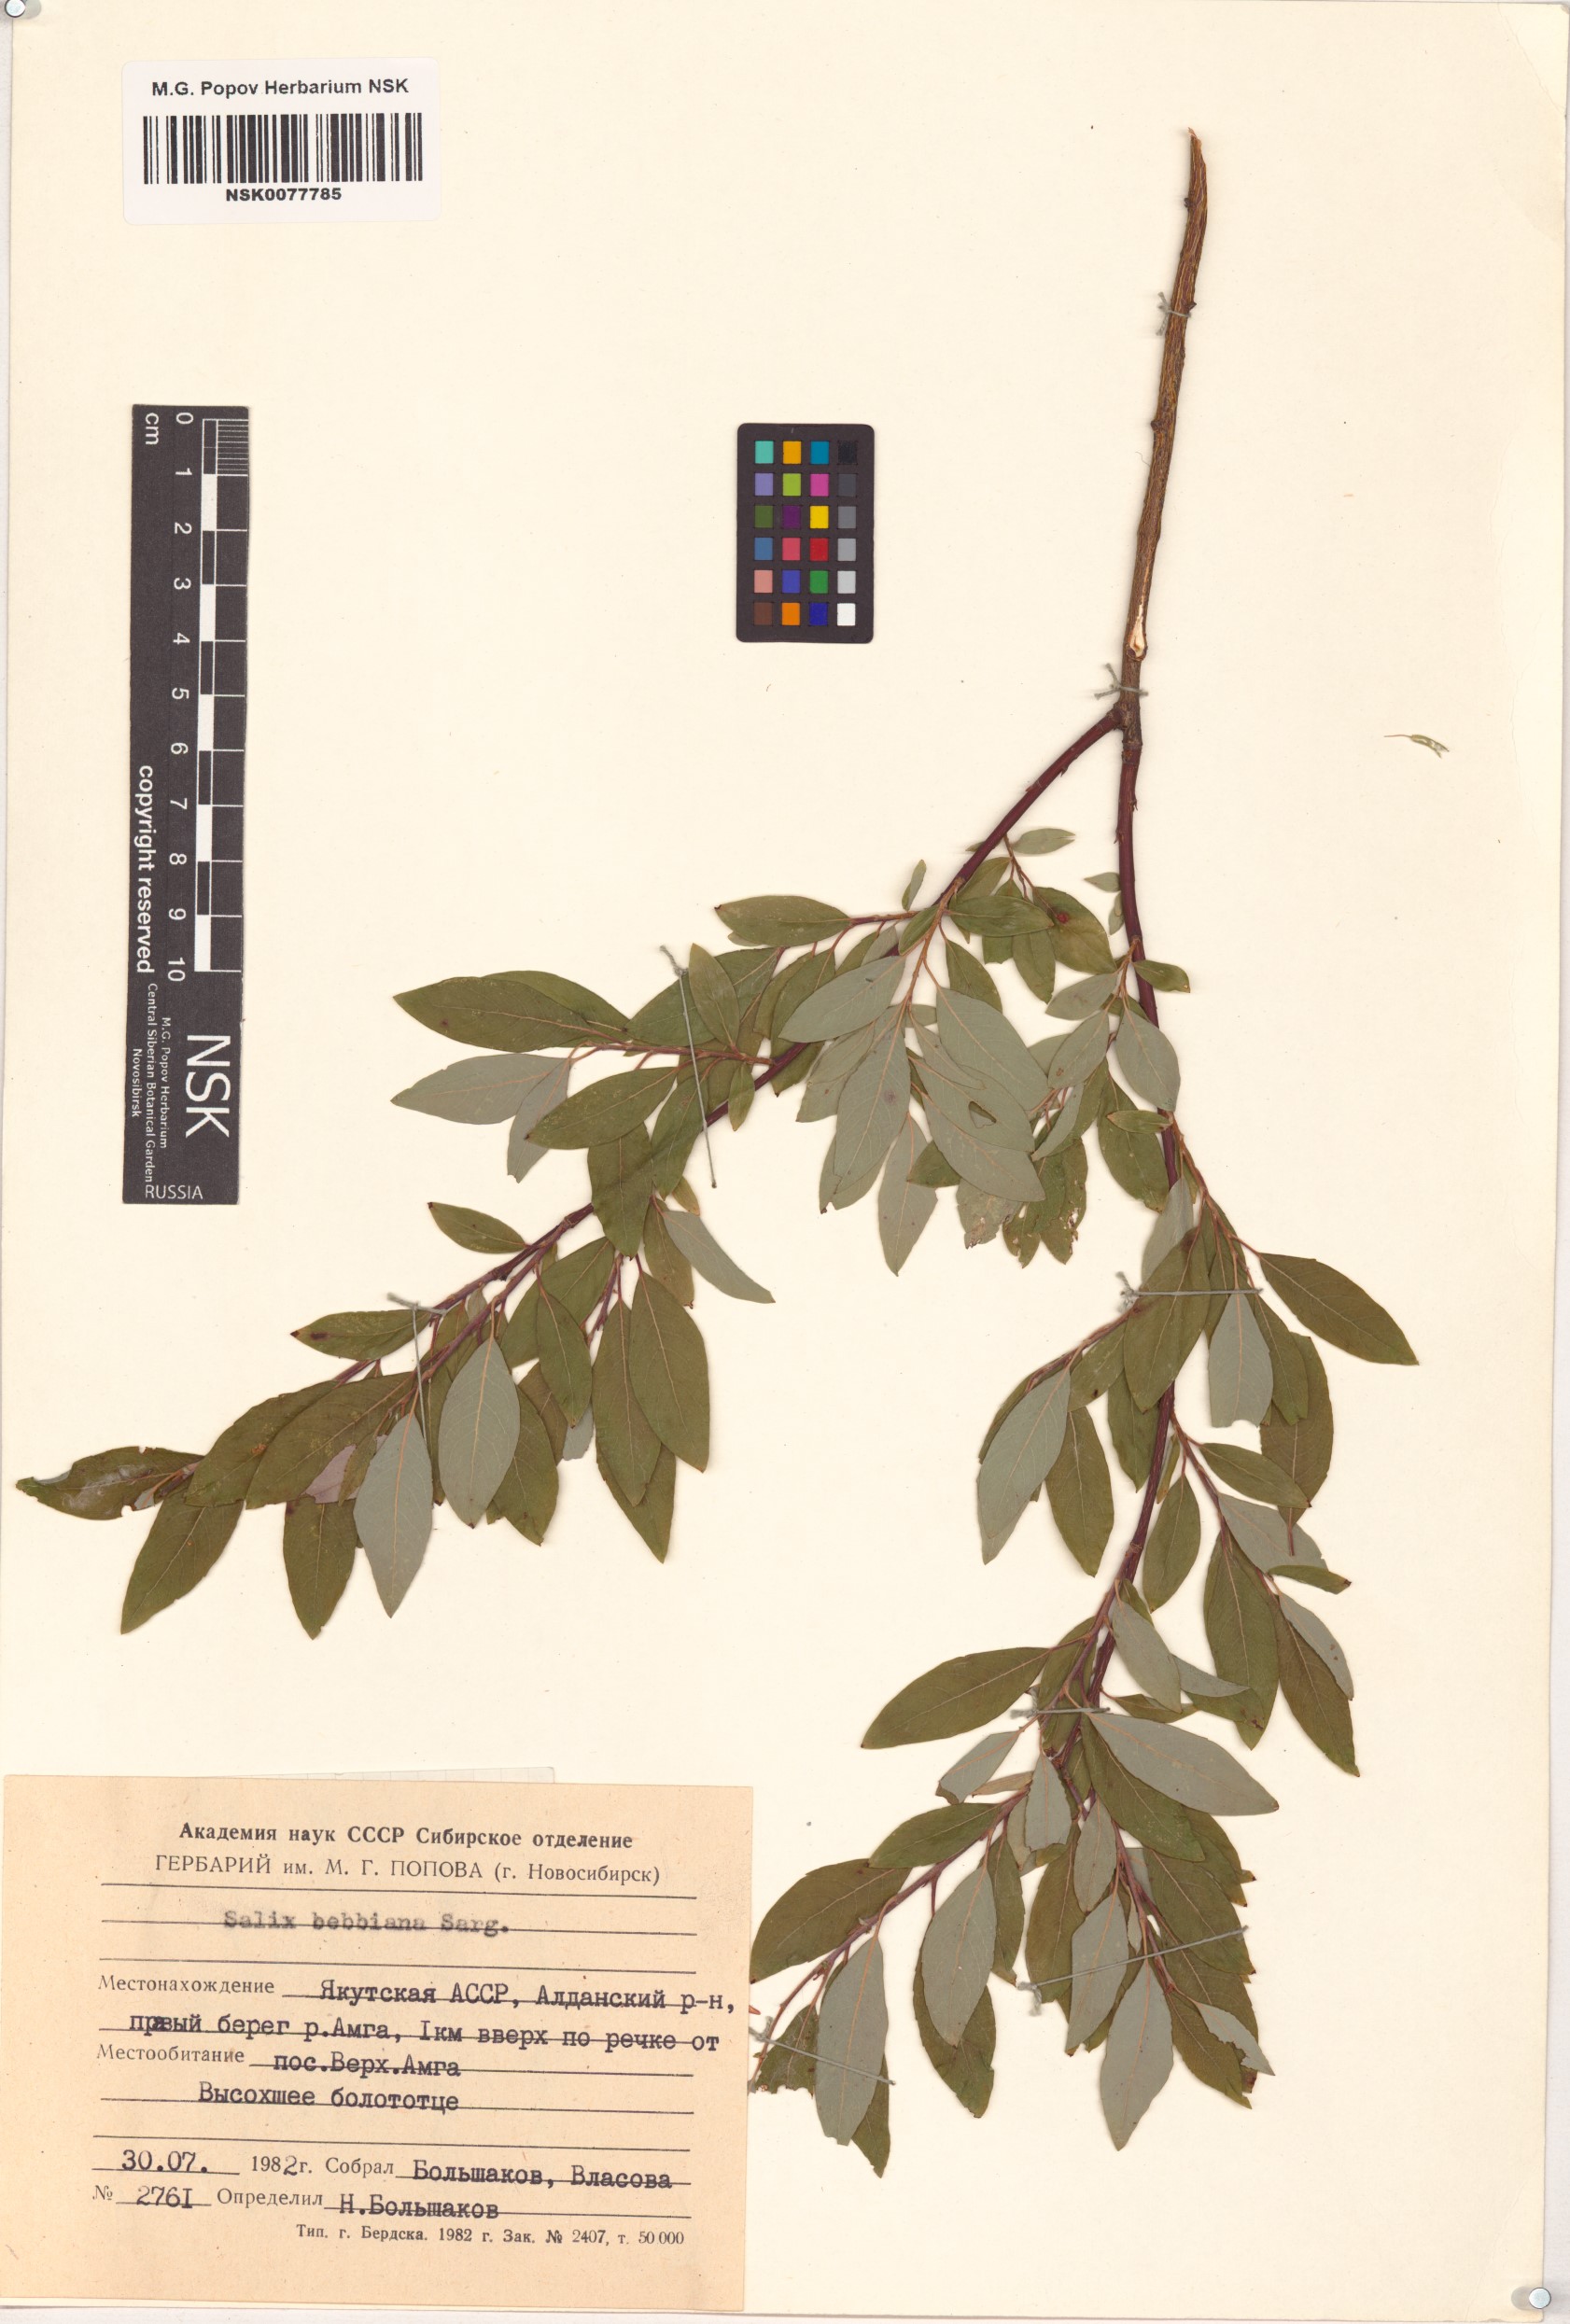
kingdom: Plantae
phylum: Tracheophyta
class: Magnoliopsida
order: Malpighiales
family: Salicaceae
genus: Salix
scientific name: Salix bebbiana
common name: Bebb's willow
